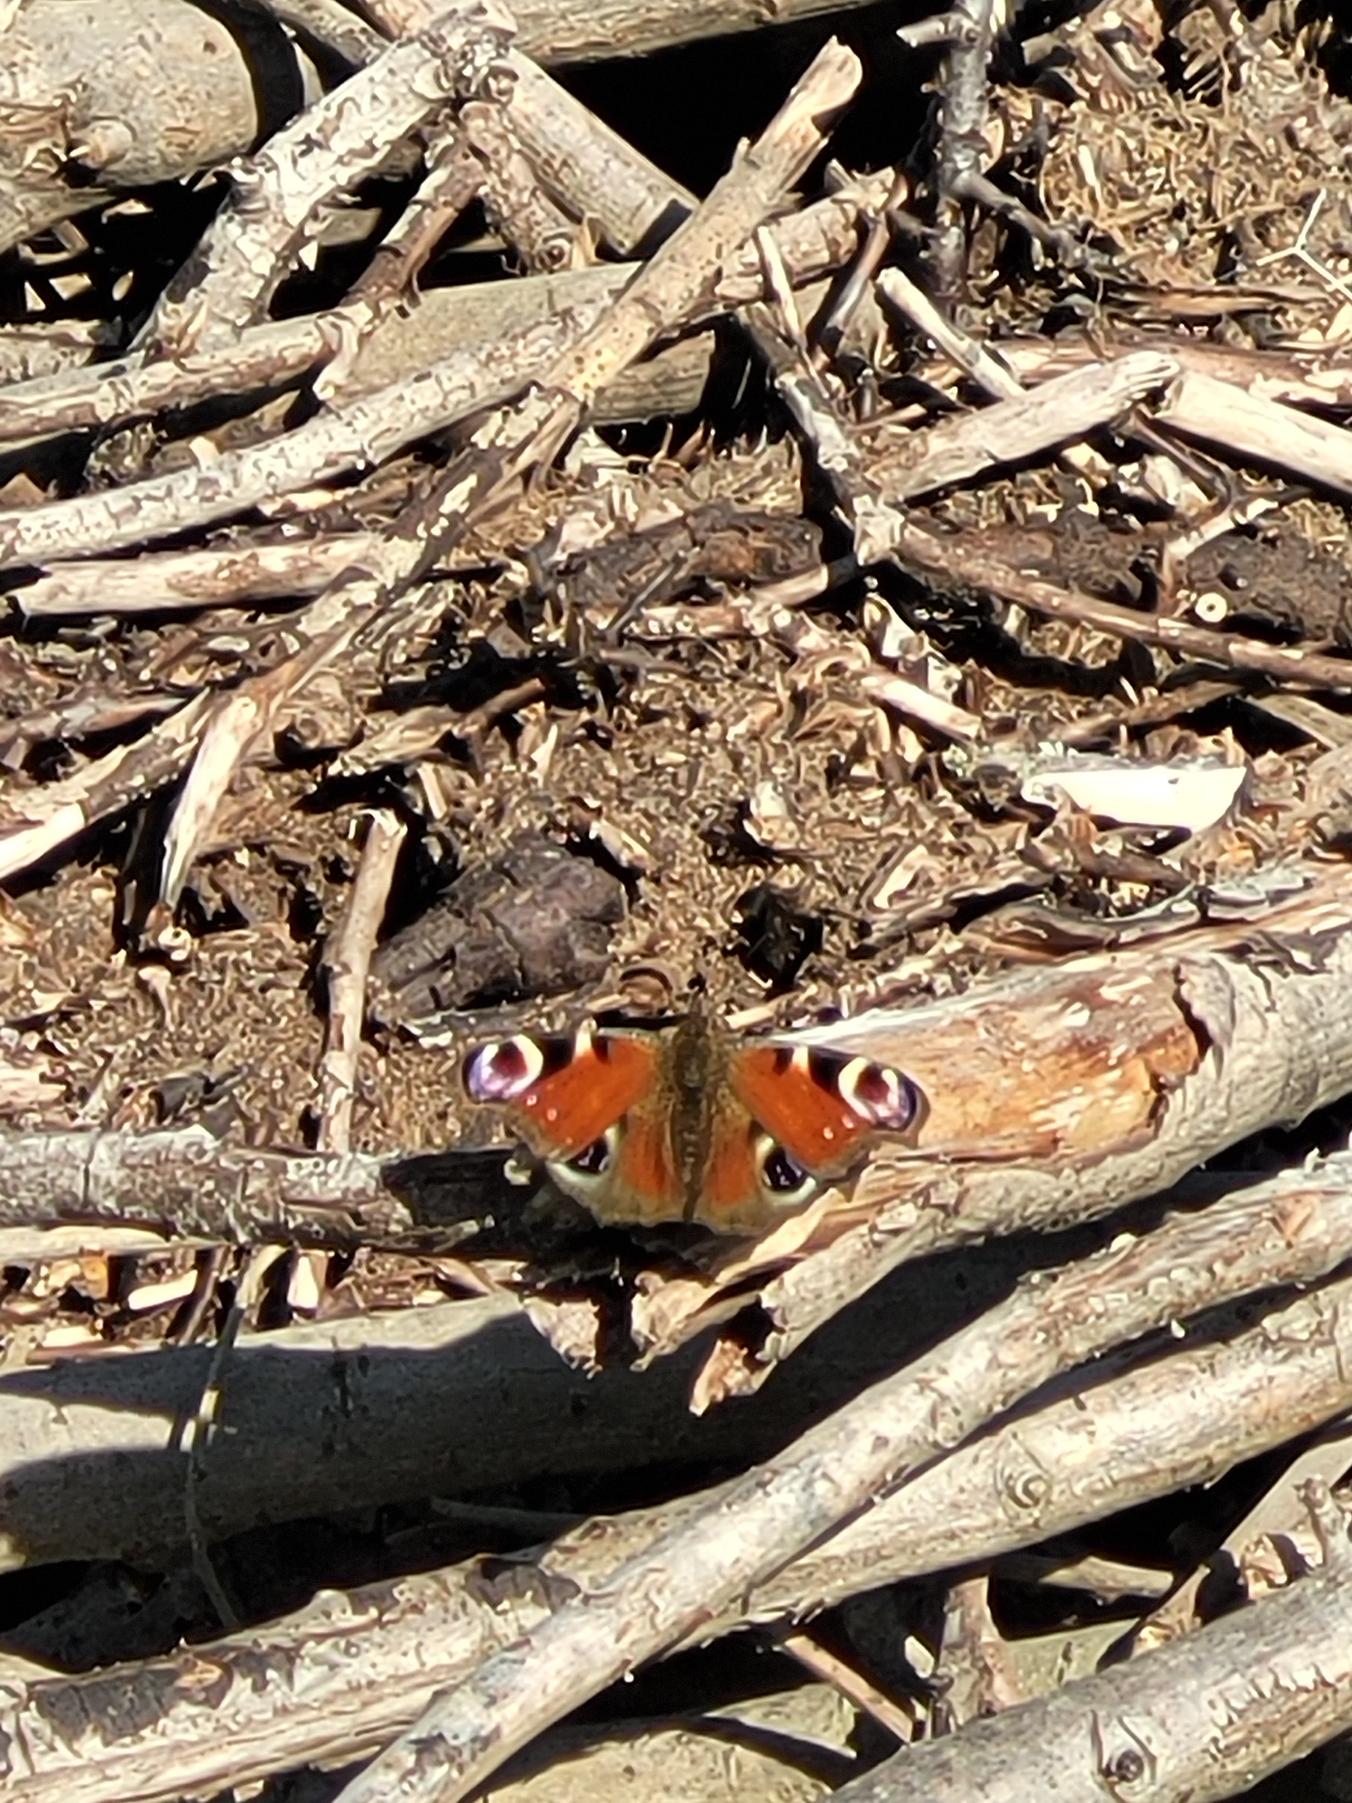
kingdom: Animalia
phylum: Arthropoda
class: Insecta
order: Lepidoptera
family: Nymphalidae
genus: Aglais
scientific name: Aglais io
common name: Dagpåfugleøje
